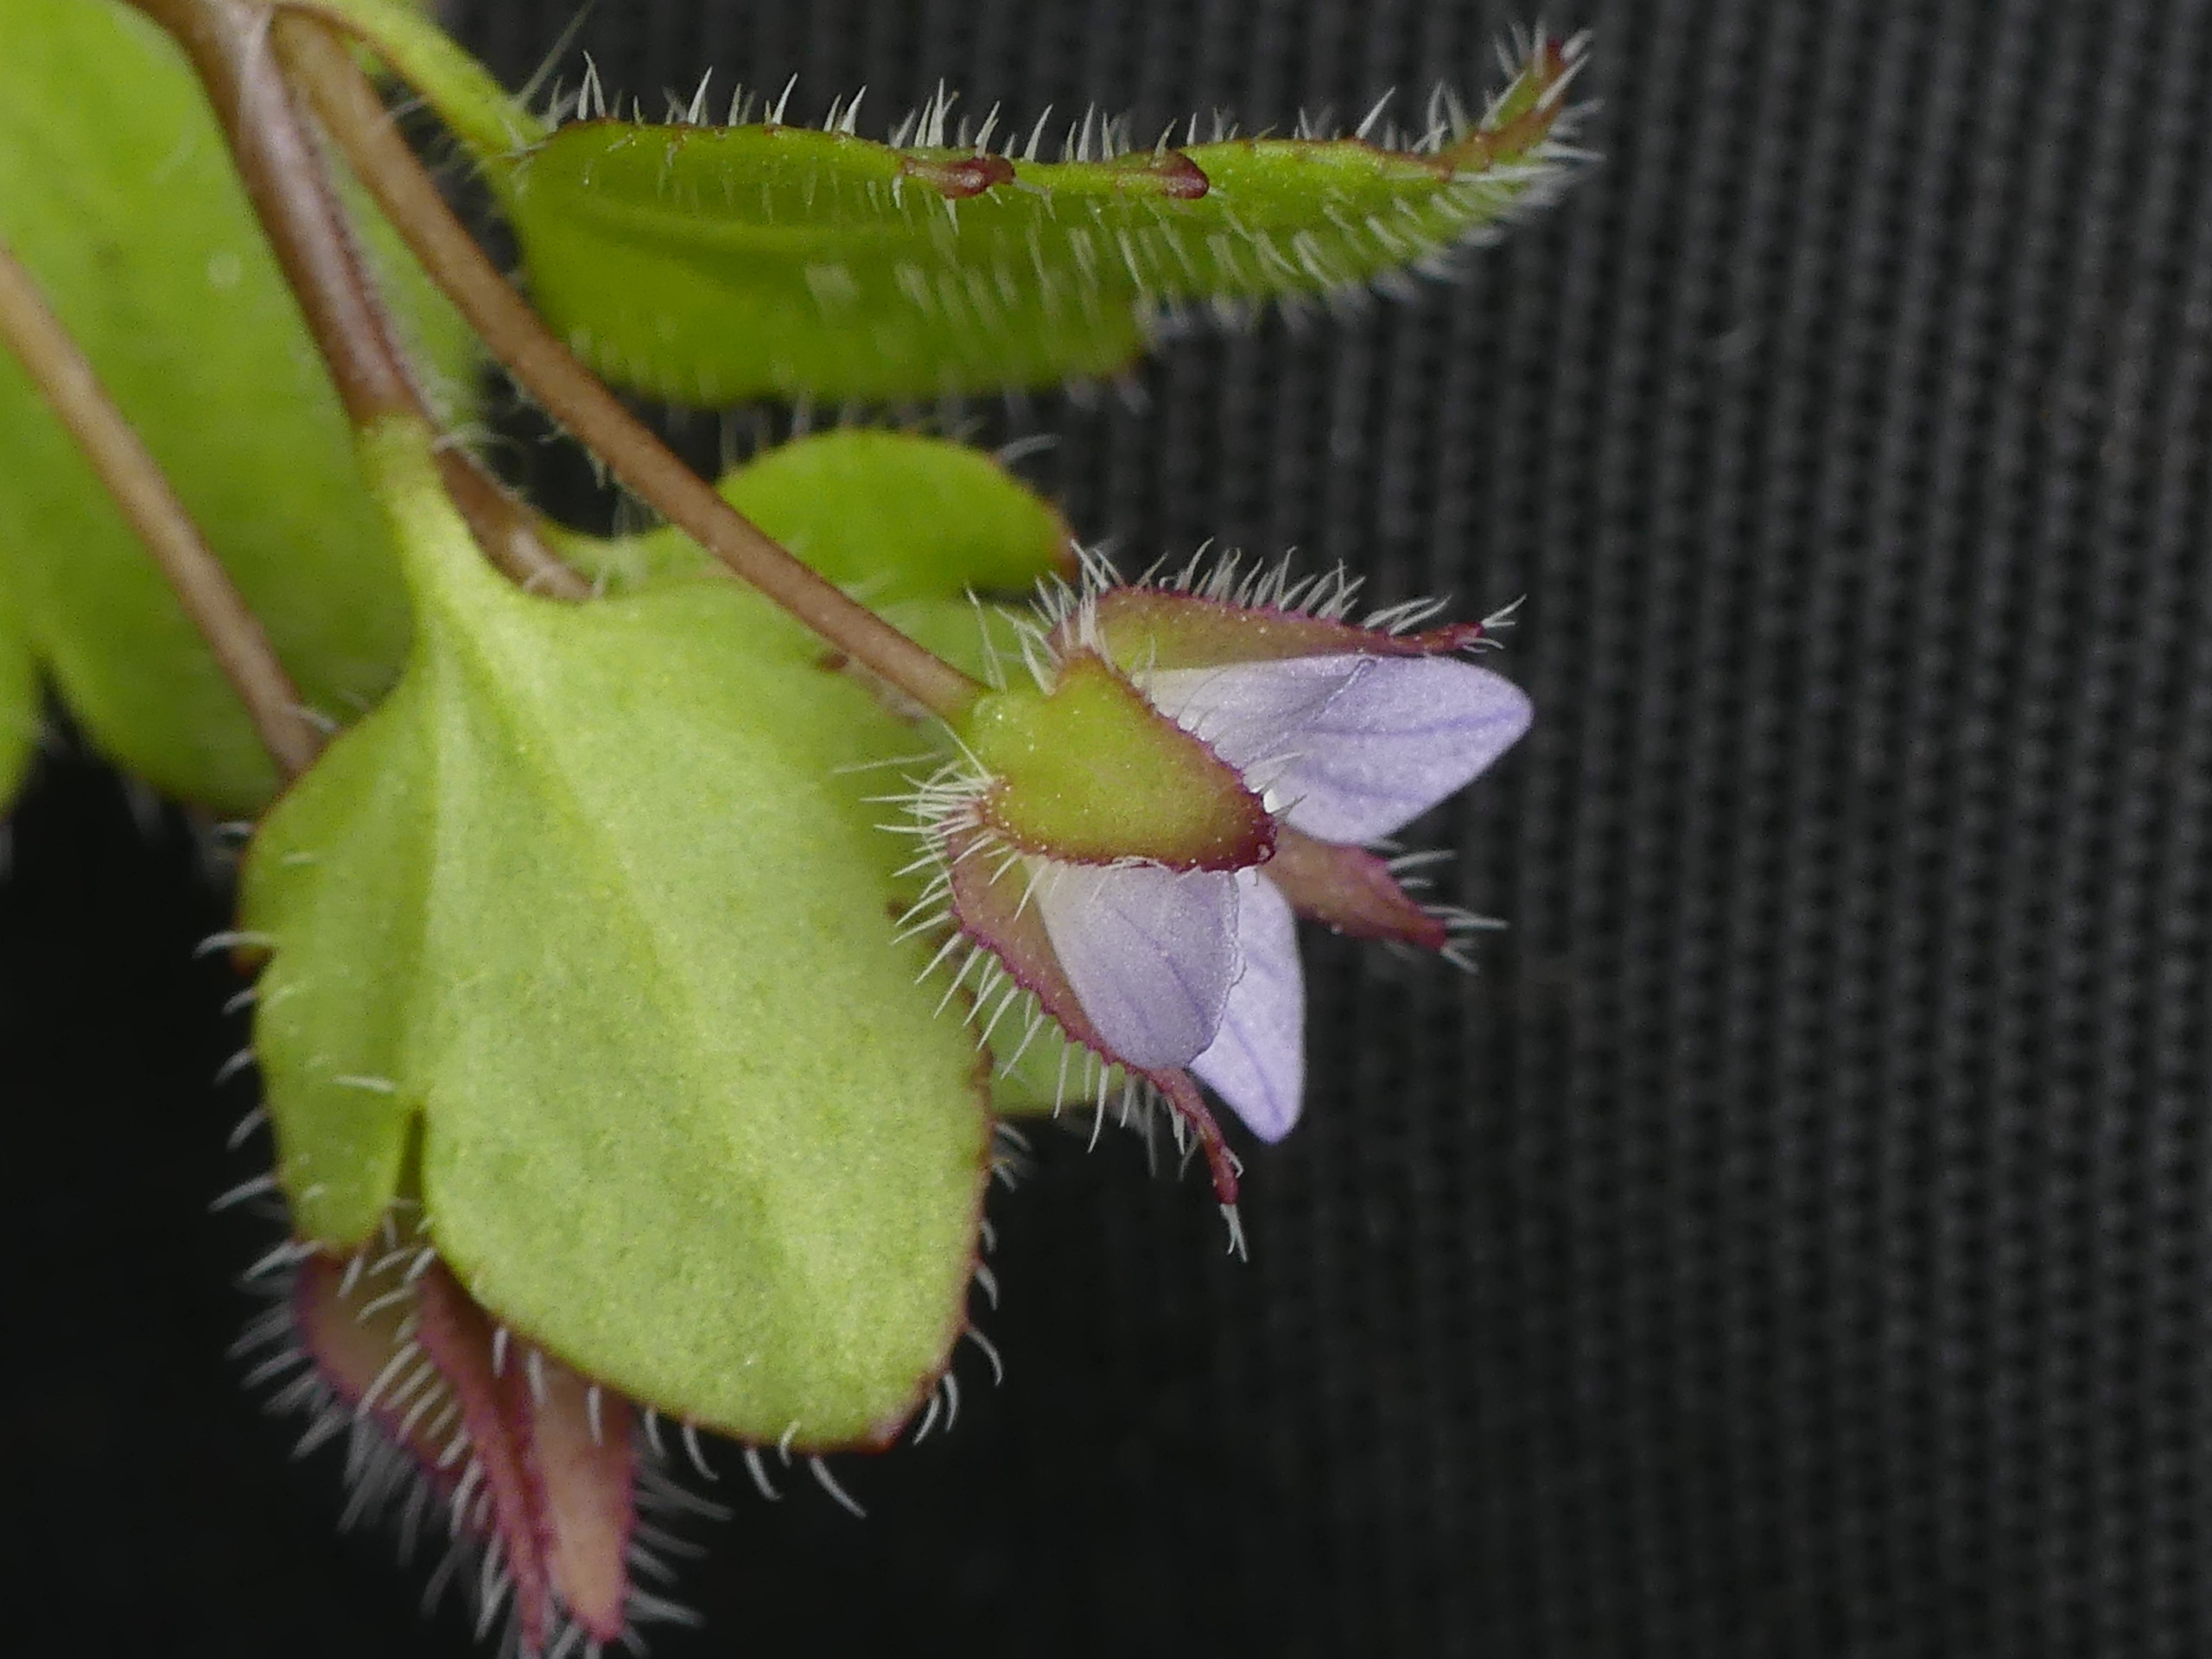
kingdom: Plantae
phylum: Tracheophyta
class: Magnoliopsida
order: Lamiales
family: Plantaginaceae
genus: Veronica
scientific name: Veronica sublobata
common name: Krat-ærenpris
